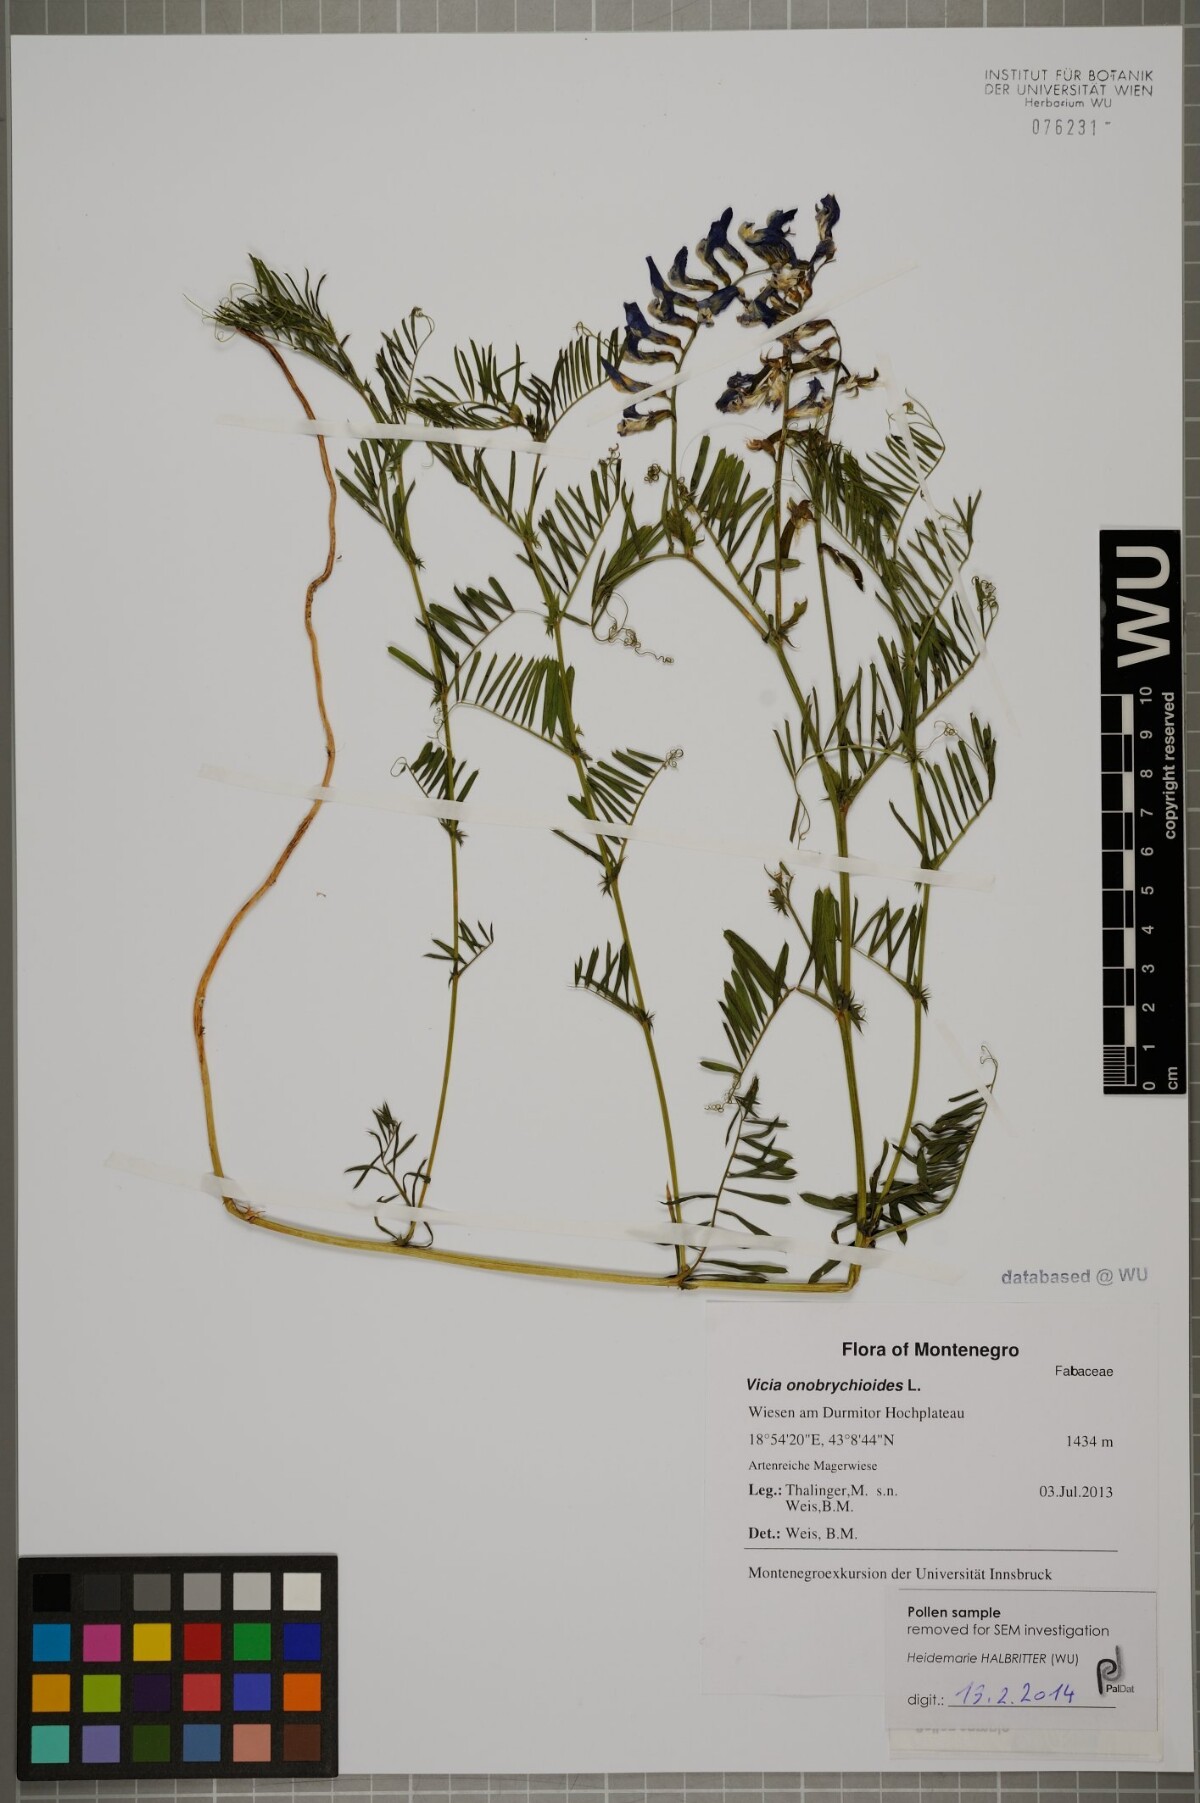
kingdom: Plantae
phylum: Tracheophyta
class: Magnoliopsida
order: Fabales
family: Fabaceae
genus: Vicia
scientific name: Vicia onobrychioides
